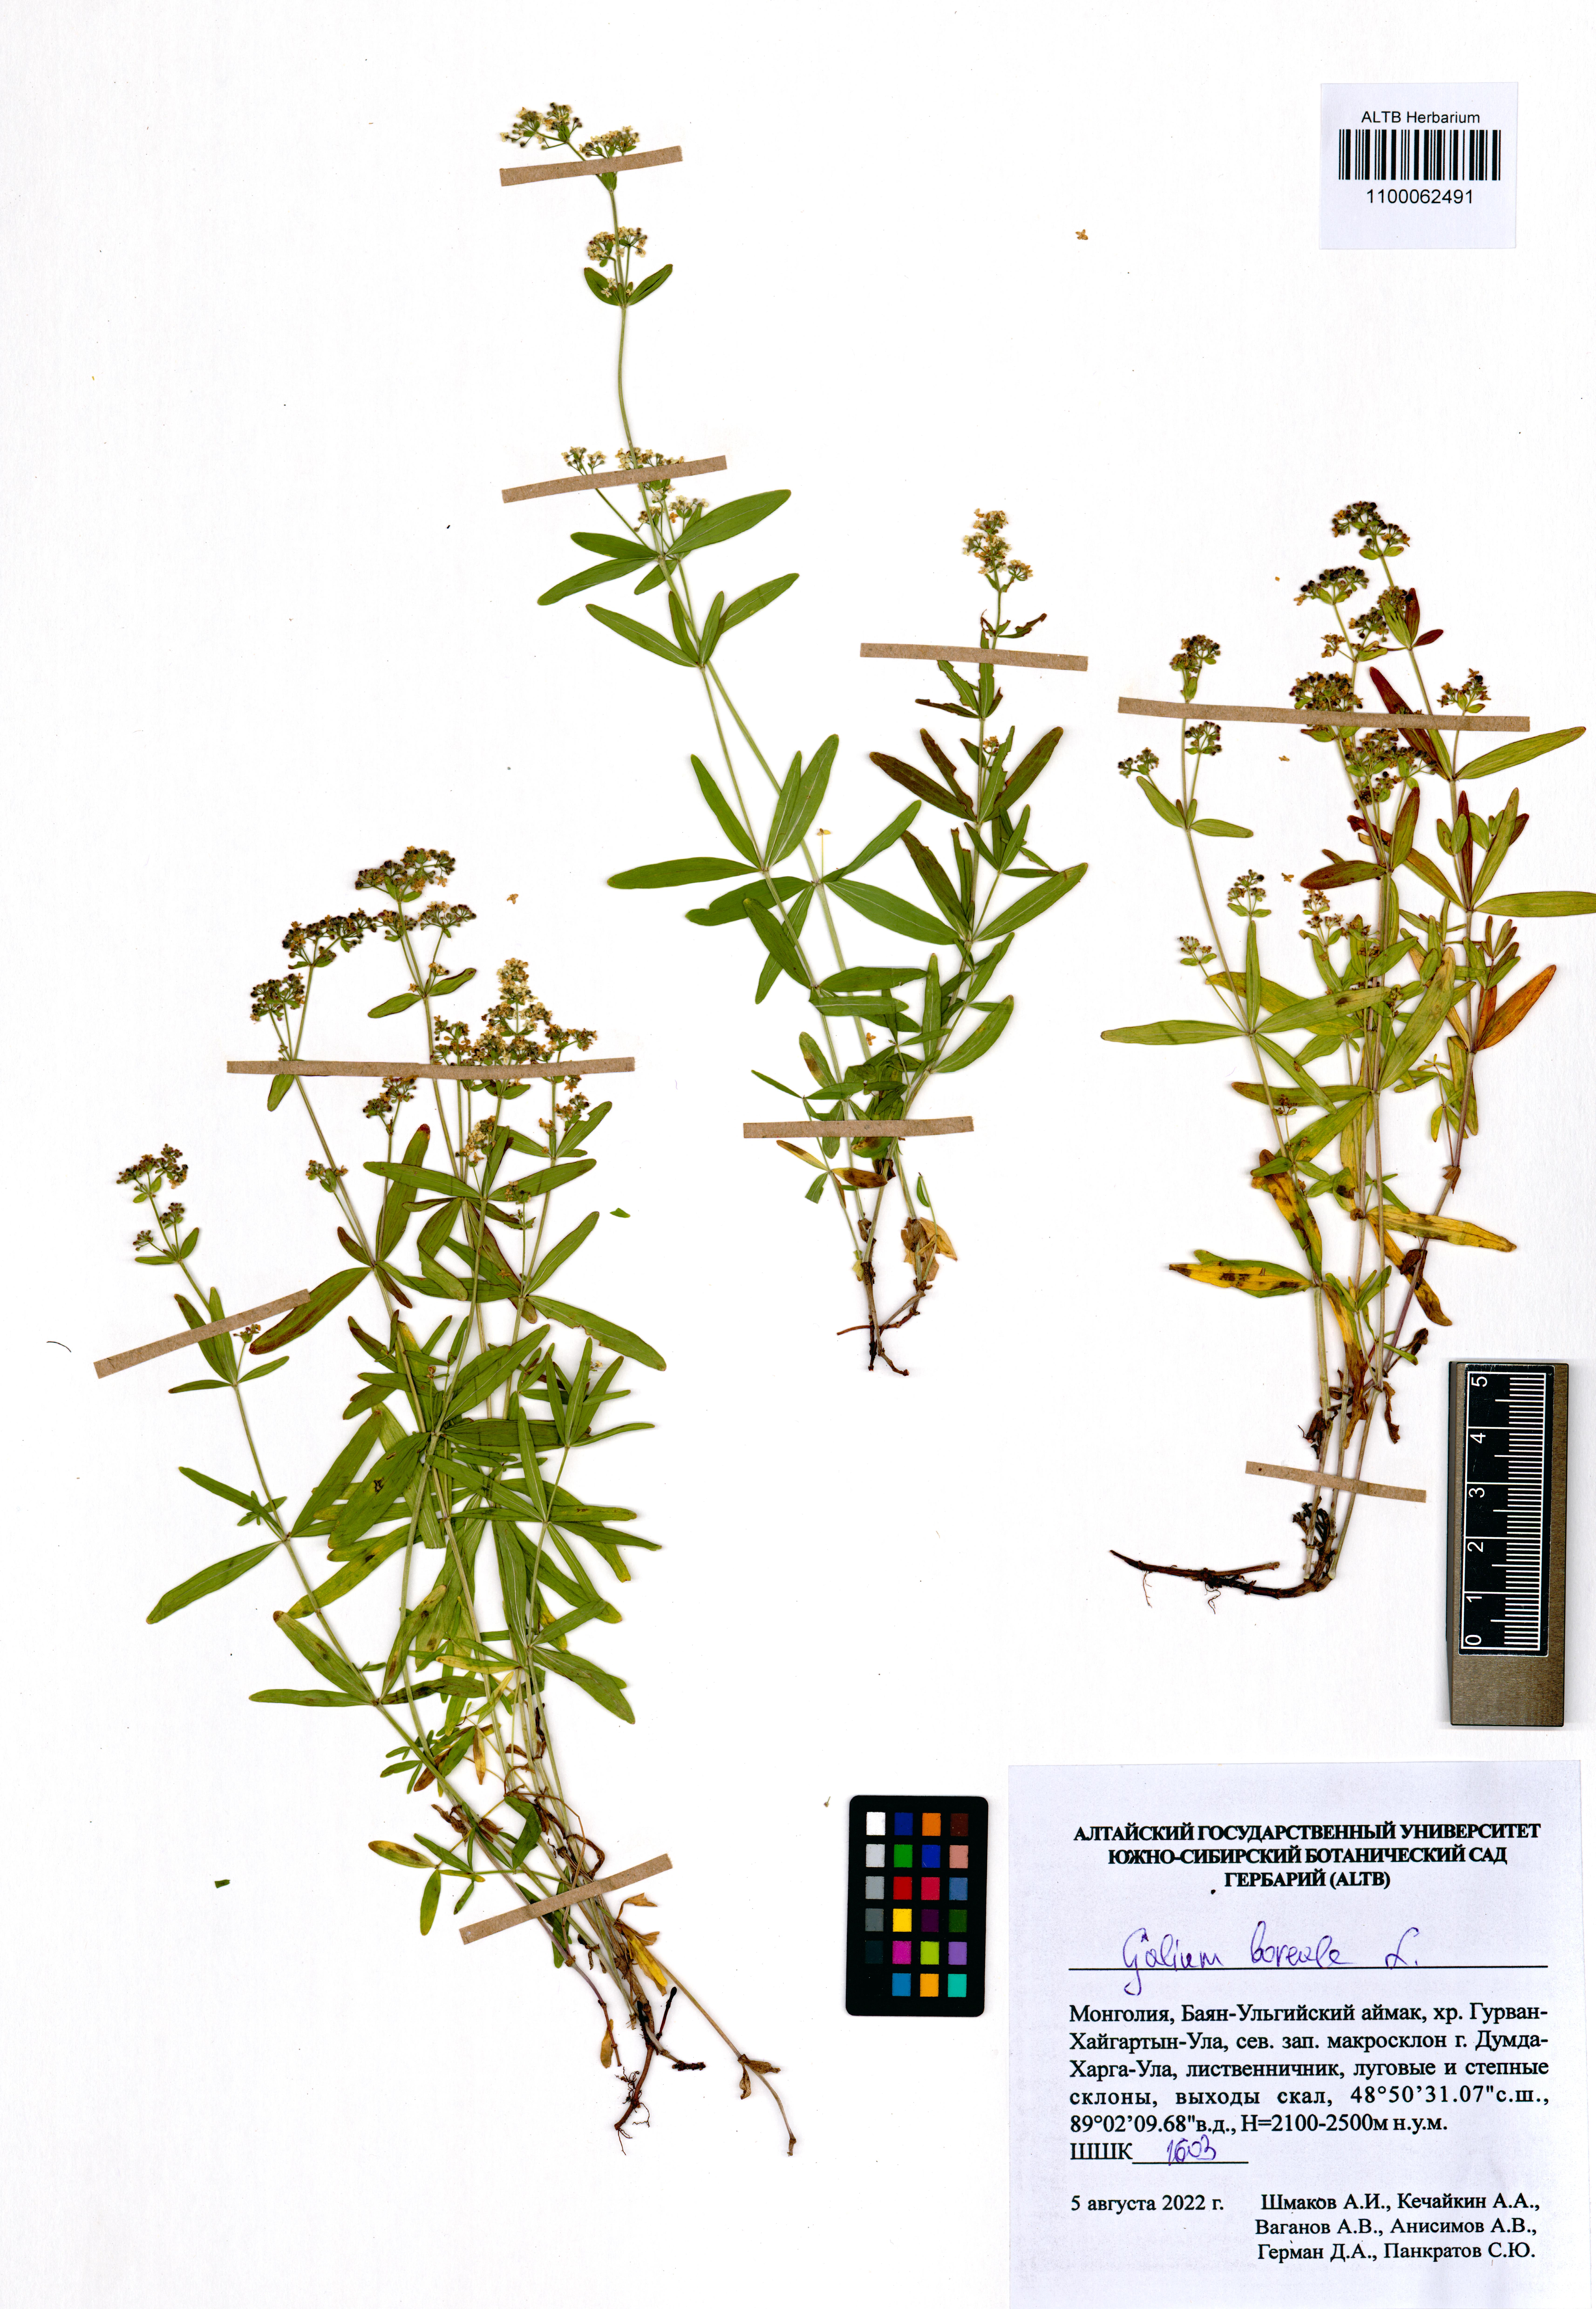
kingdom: Plantae
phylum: Tracheophyta
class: Magnoliopsida
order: Gentianales
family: Rubiaceae
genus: Galium
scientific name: Galium boreale
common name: Northern bedstraw
